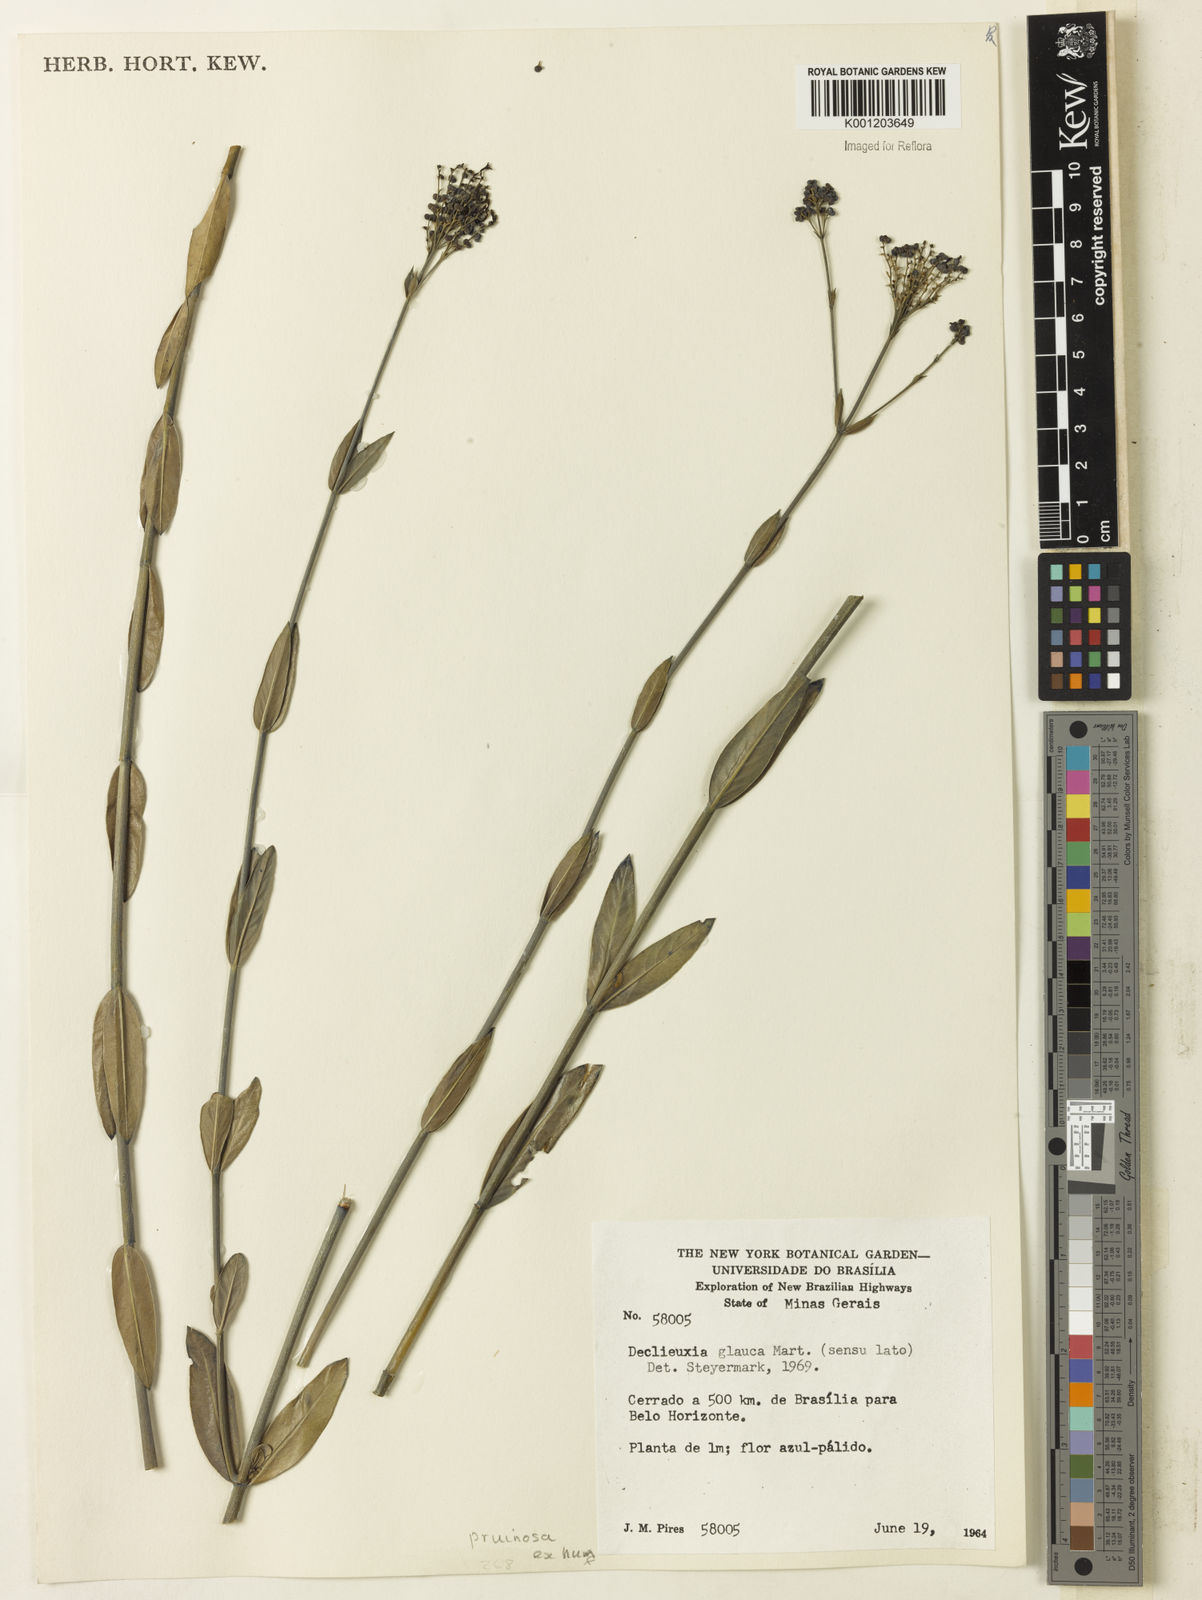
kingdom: Plantae
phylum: Tracheophyta
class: Magnoliopsida
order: Gentianales
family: Rubiaceae
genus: Declieuxia
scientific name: Declieuxia pruinosa
